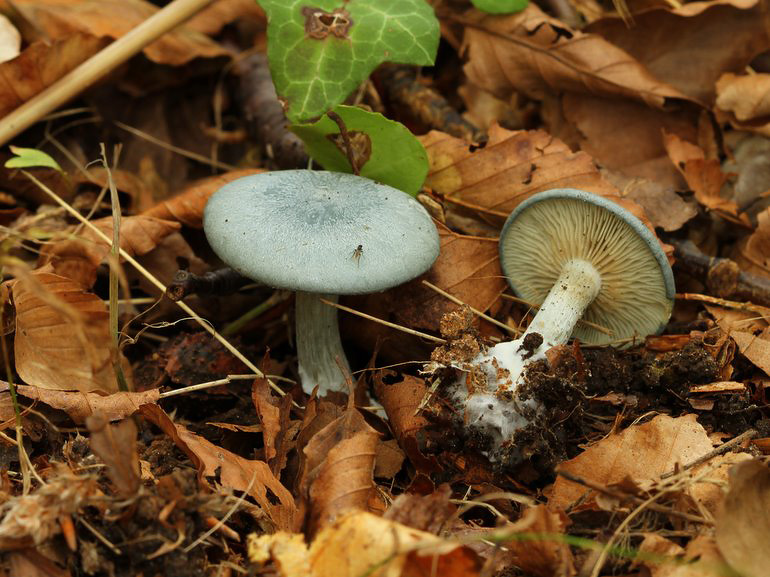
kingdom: Fungi
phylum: Basidiomycota
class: Agaricomycetes
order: Agaricales
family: Tricholomataceae
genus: Clitocybe
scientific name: Clitocybe odora
